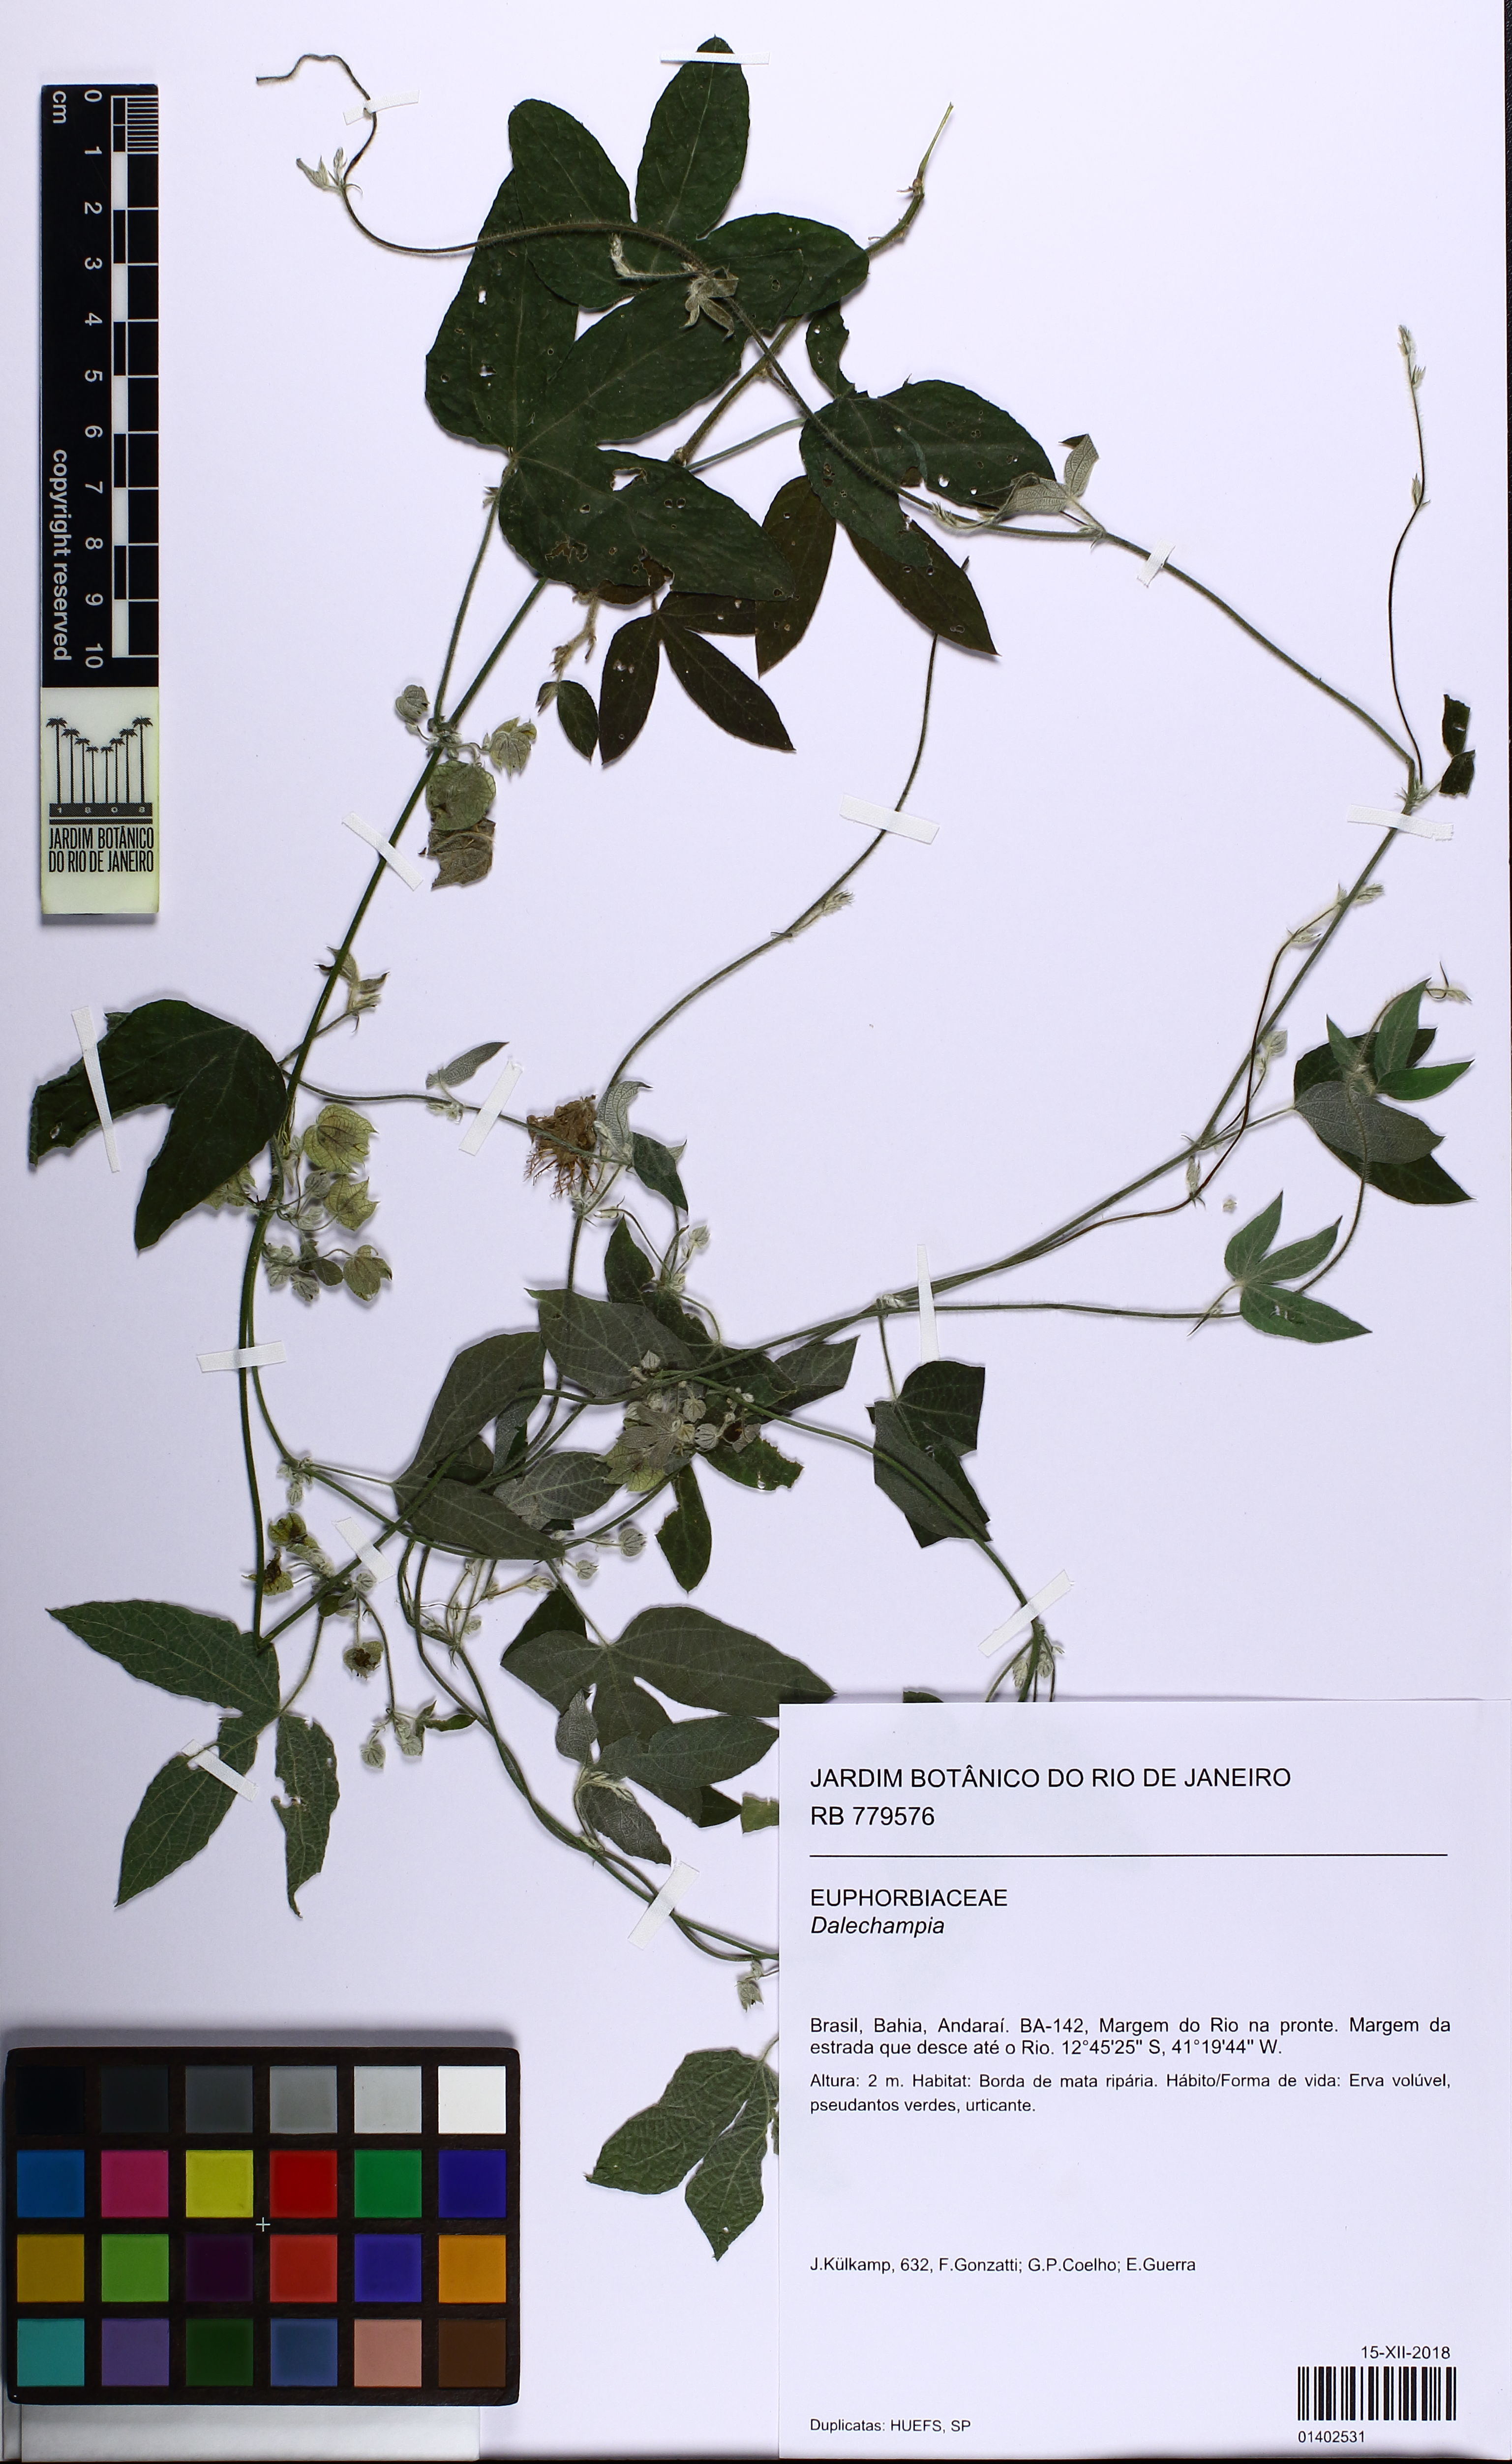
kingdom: Plantae
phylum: Tracheophyta
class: Magnoliopsida
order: Malpighiales
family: Euphorbiaceae
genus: Dalechampia
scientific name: Dalechampia brasiliensis
